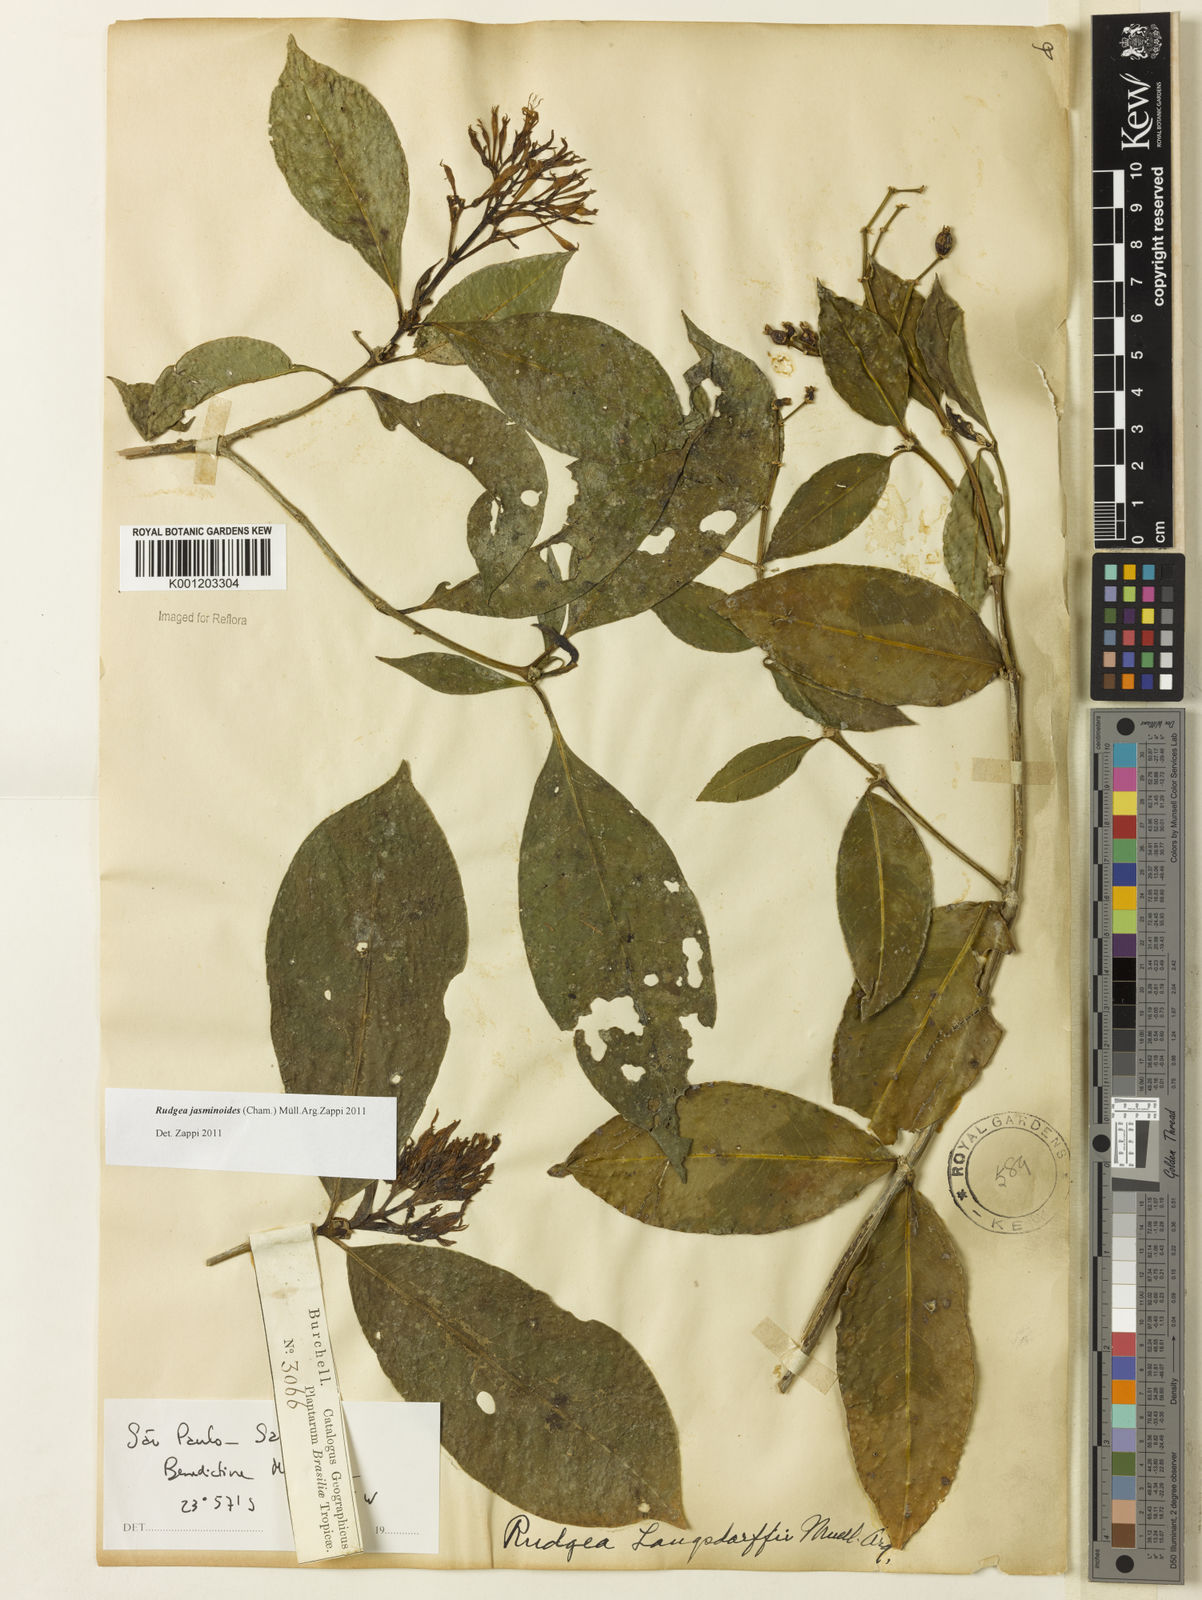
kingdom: Plantae
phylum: Tracheophyta
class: Magnoliopsida
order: Gentianales
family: Rubiaceae
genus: Rudgea
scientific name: Rudgea
